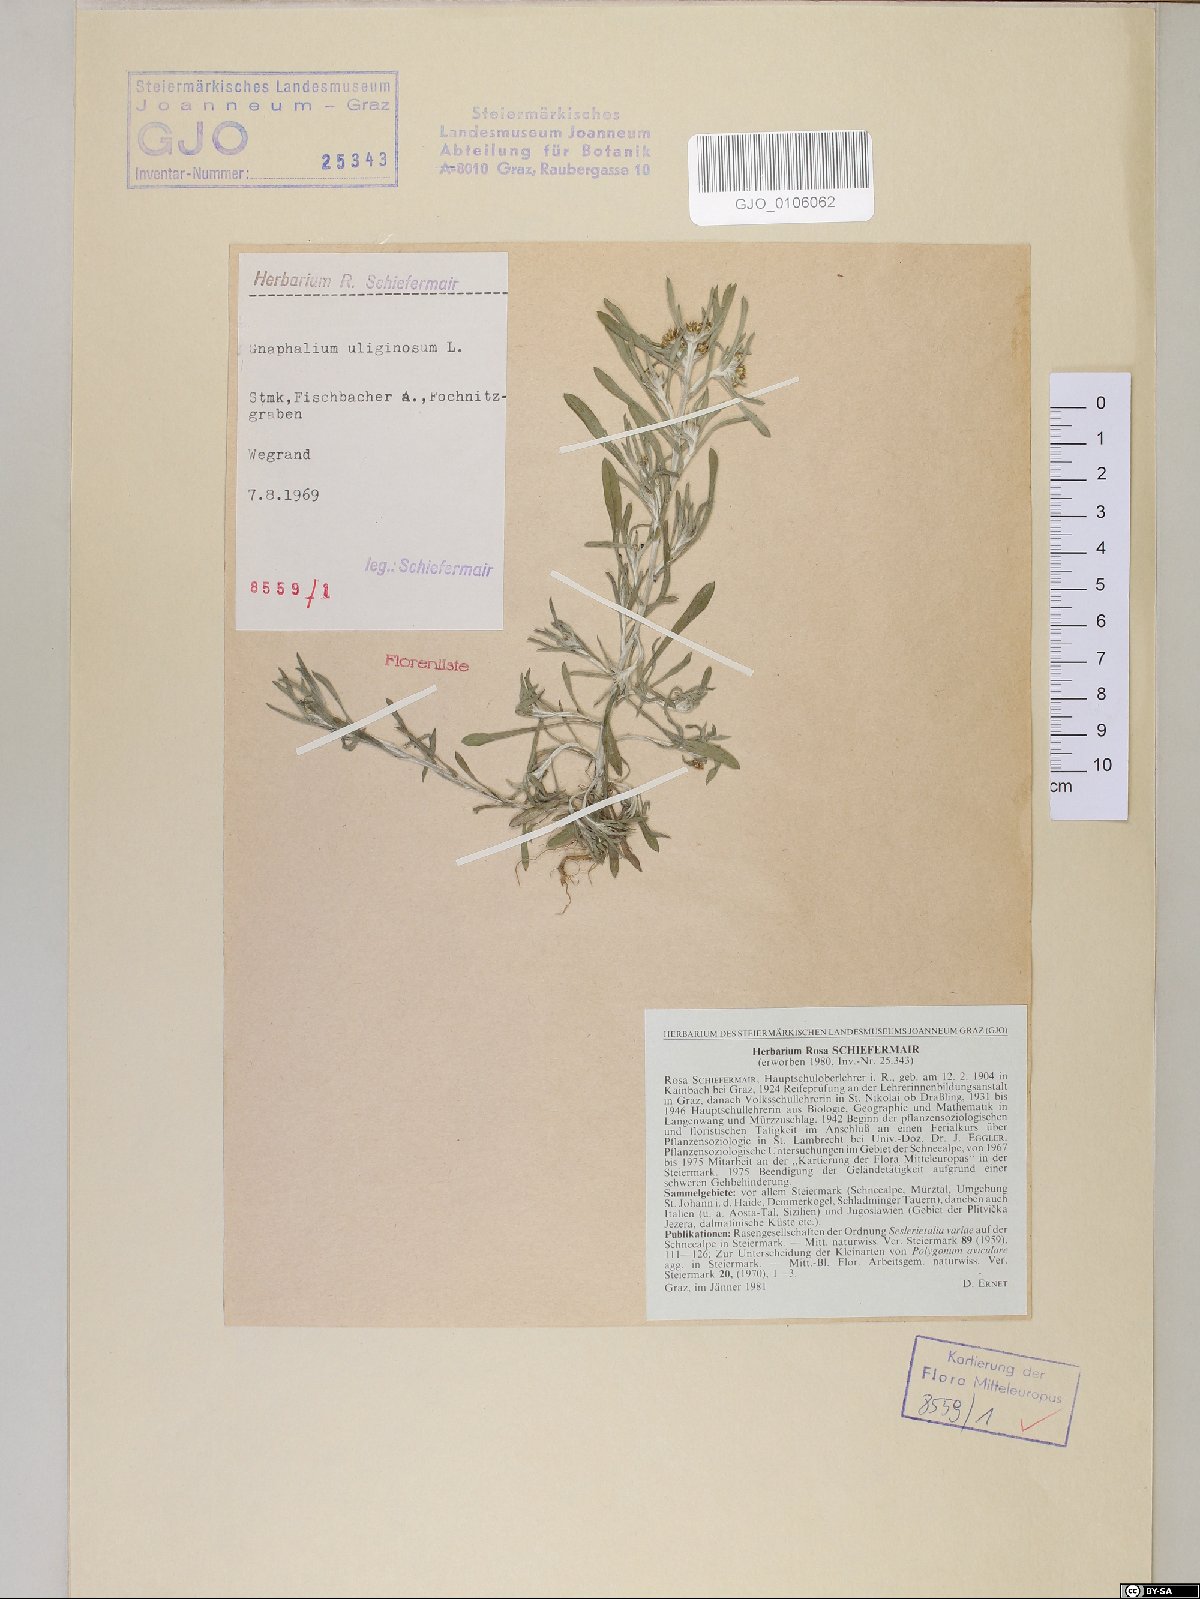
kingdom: Plantae
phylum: Tracheophyta
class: Magnoliopsida
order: Asterales
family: Asteraceae
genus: Gnaphalium
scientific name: Gnaphalium uliginosum
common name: Marsh cudweed
